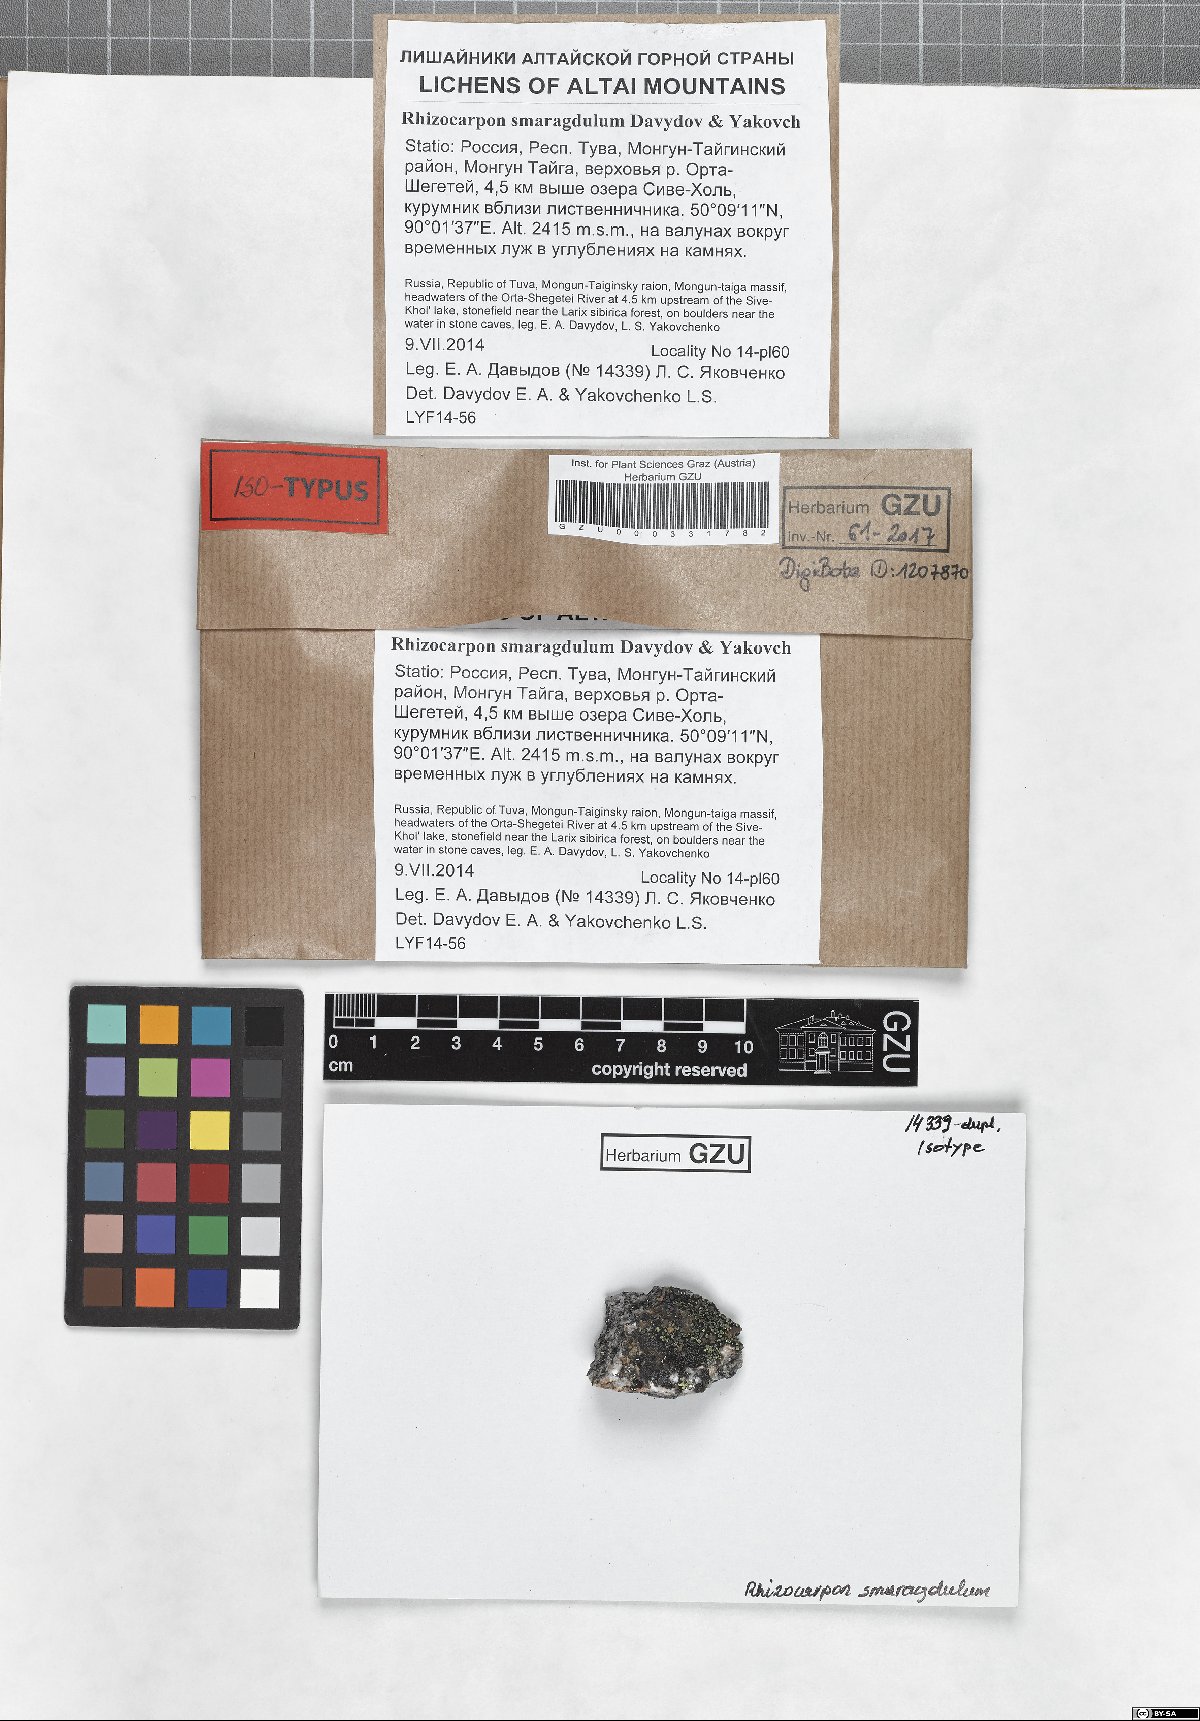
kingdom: Fungi
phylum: Ascomycota
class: Lecanoromycetes
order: Rhizocarpales
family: Rhizocarpaceae
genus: Rhizocarpon
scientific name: Rhizocarpon smaragdulum
